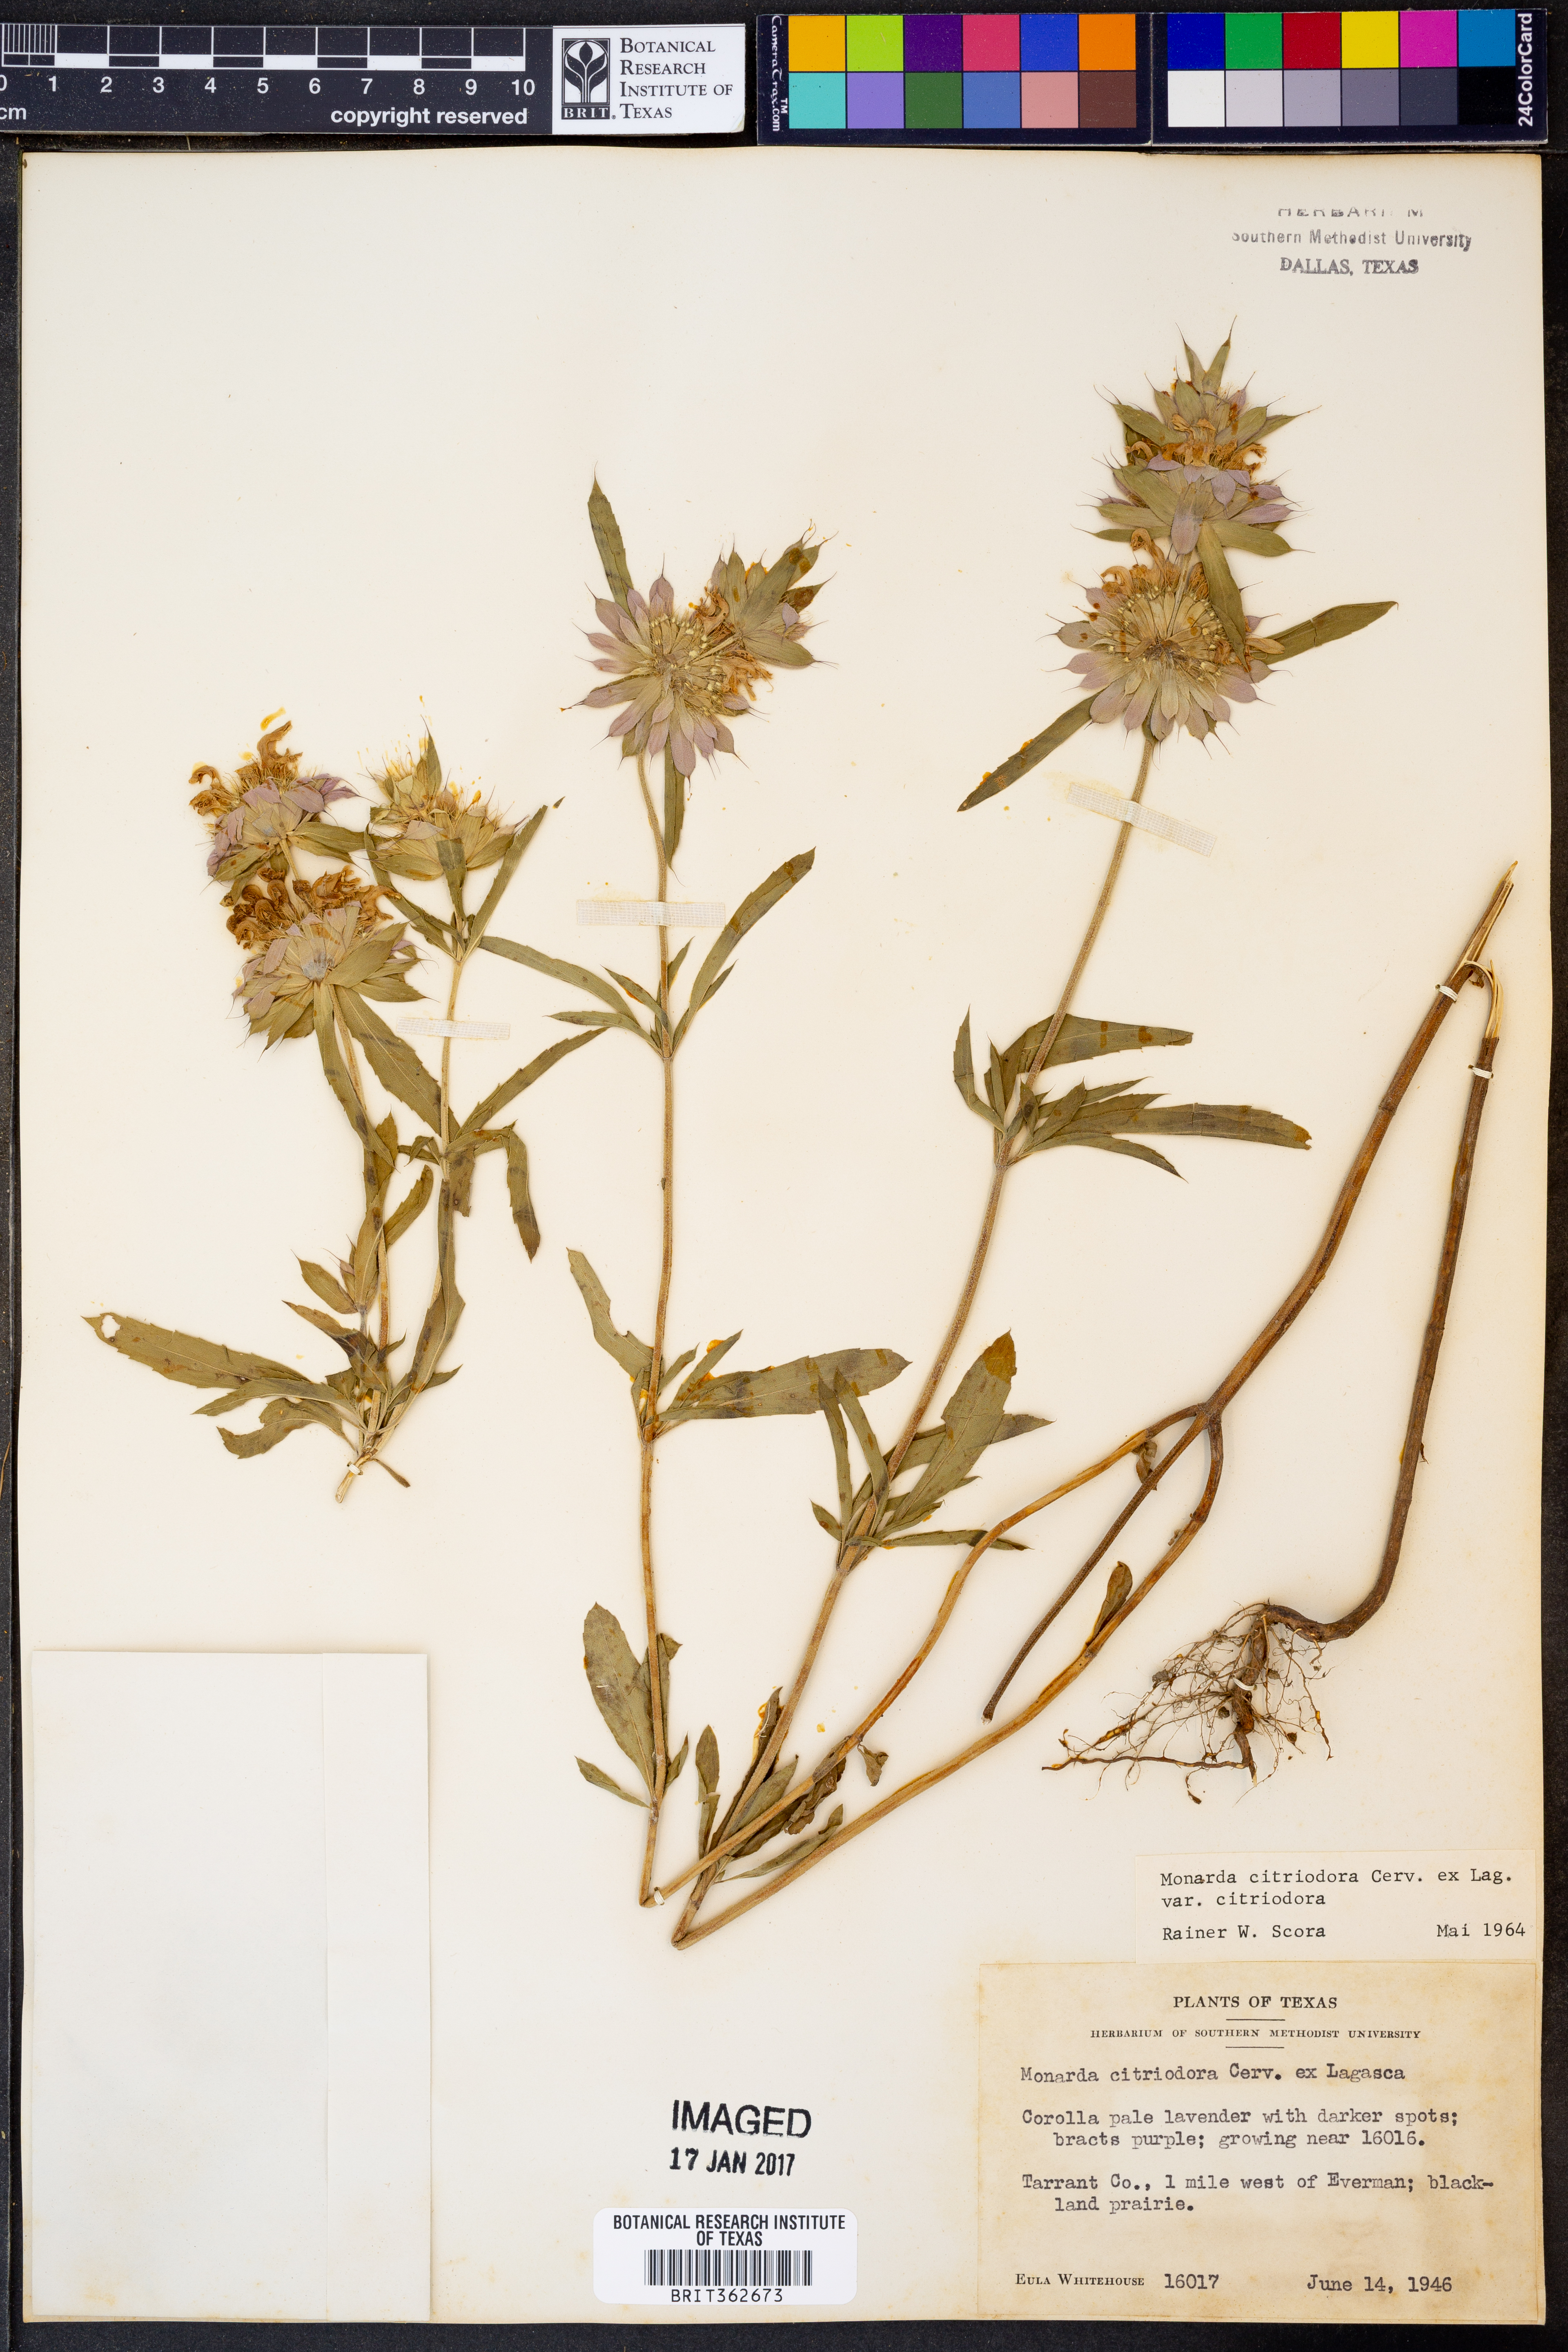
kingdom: Plantae
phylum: Tracheophyta
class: Magnoliopsida
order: Lamiales
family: Lamiaceae
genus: Monarda
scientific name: Monarda citriodora
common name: Lemon beebalm
